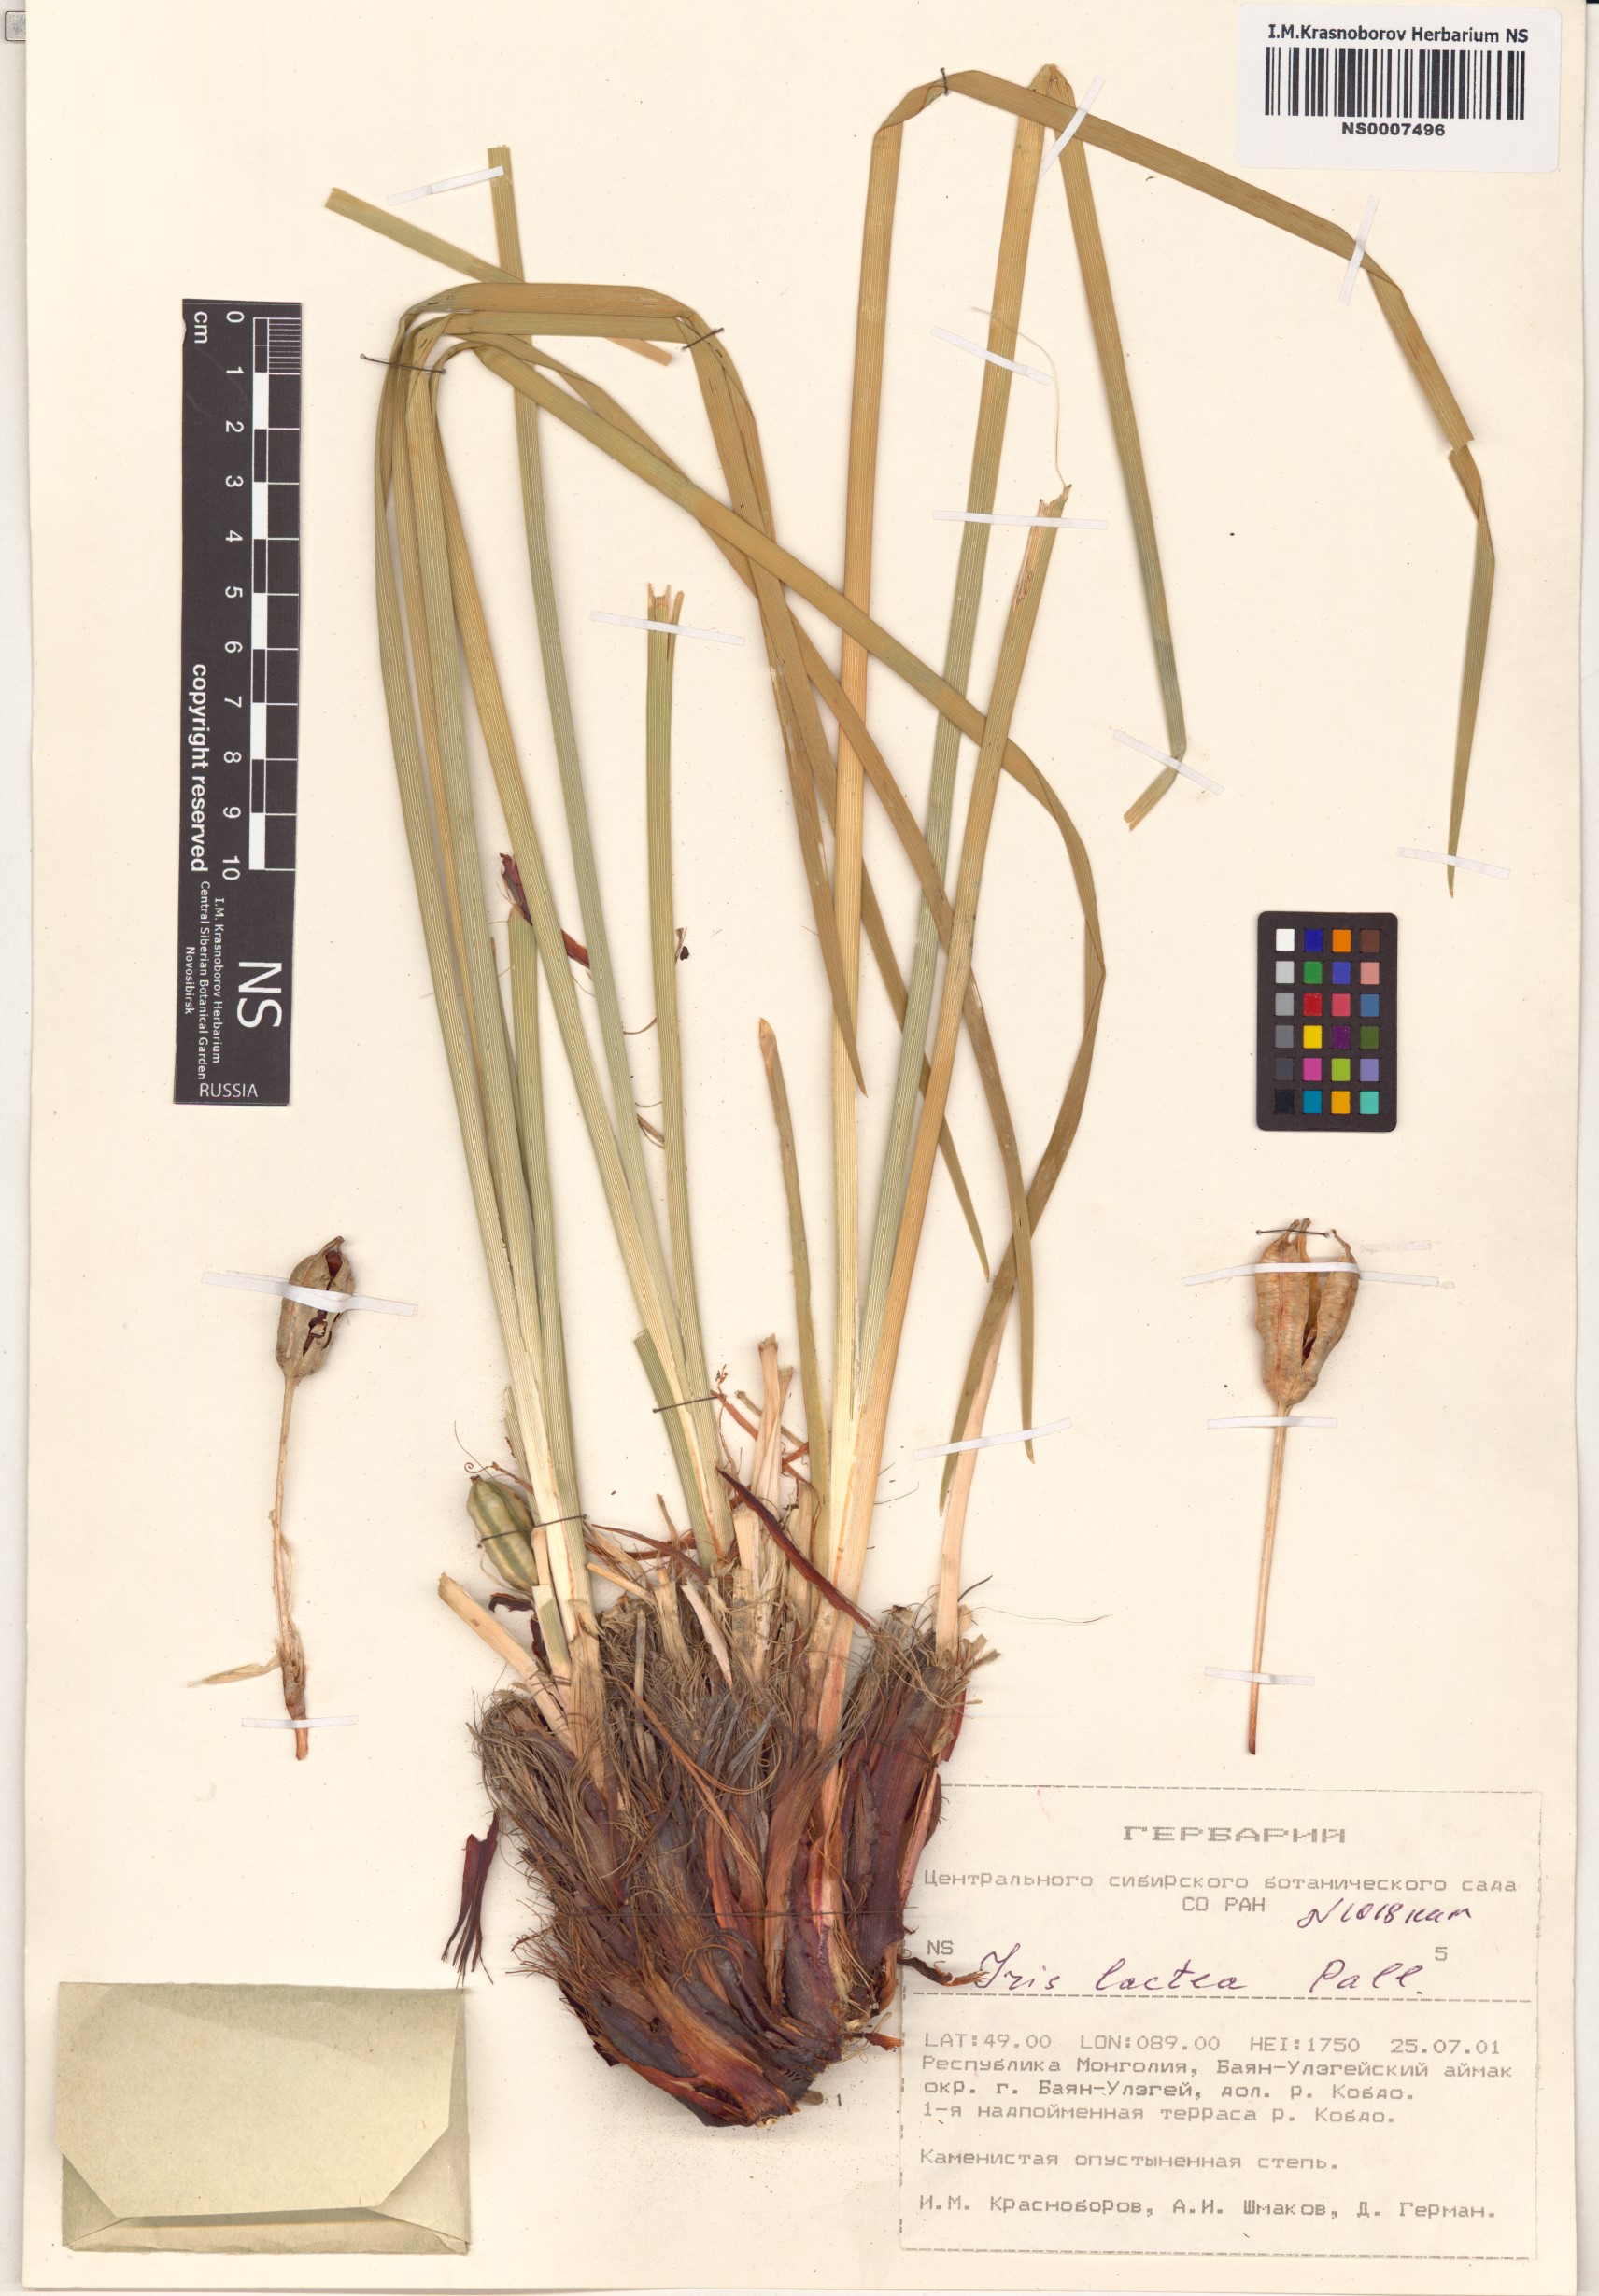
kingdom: Plantae
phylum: Tracheophyta
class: Liliopsida
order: Asparagales
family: Iridaceae
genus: Iris
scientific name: Iris lactea
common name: White-flower chinese iris
